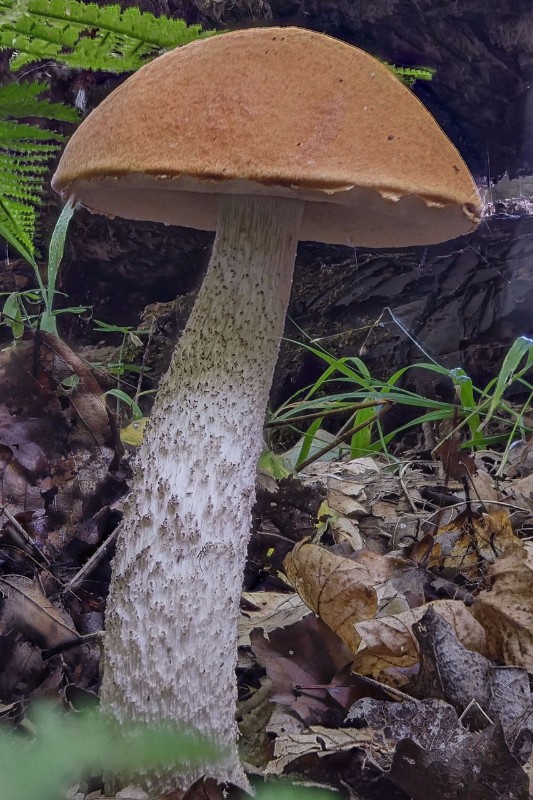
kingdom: Fungi
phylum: Basidiomycota
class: Agaricomycetes
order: Boletales
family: Boletaceae
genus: Leccinum
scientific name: Leccinum albostipitatum
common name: aspe-skælrørhat
